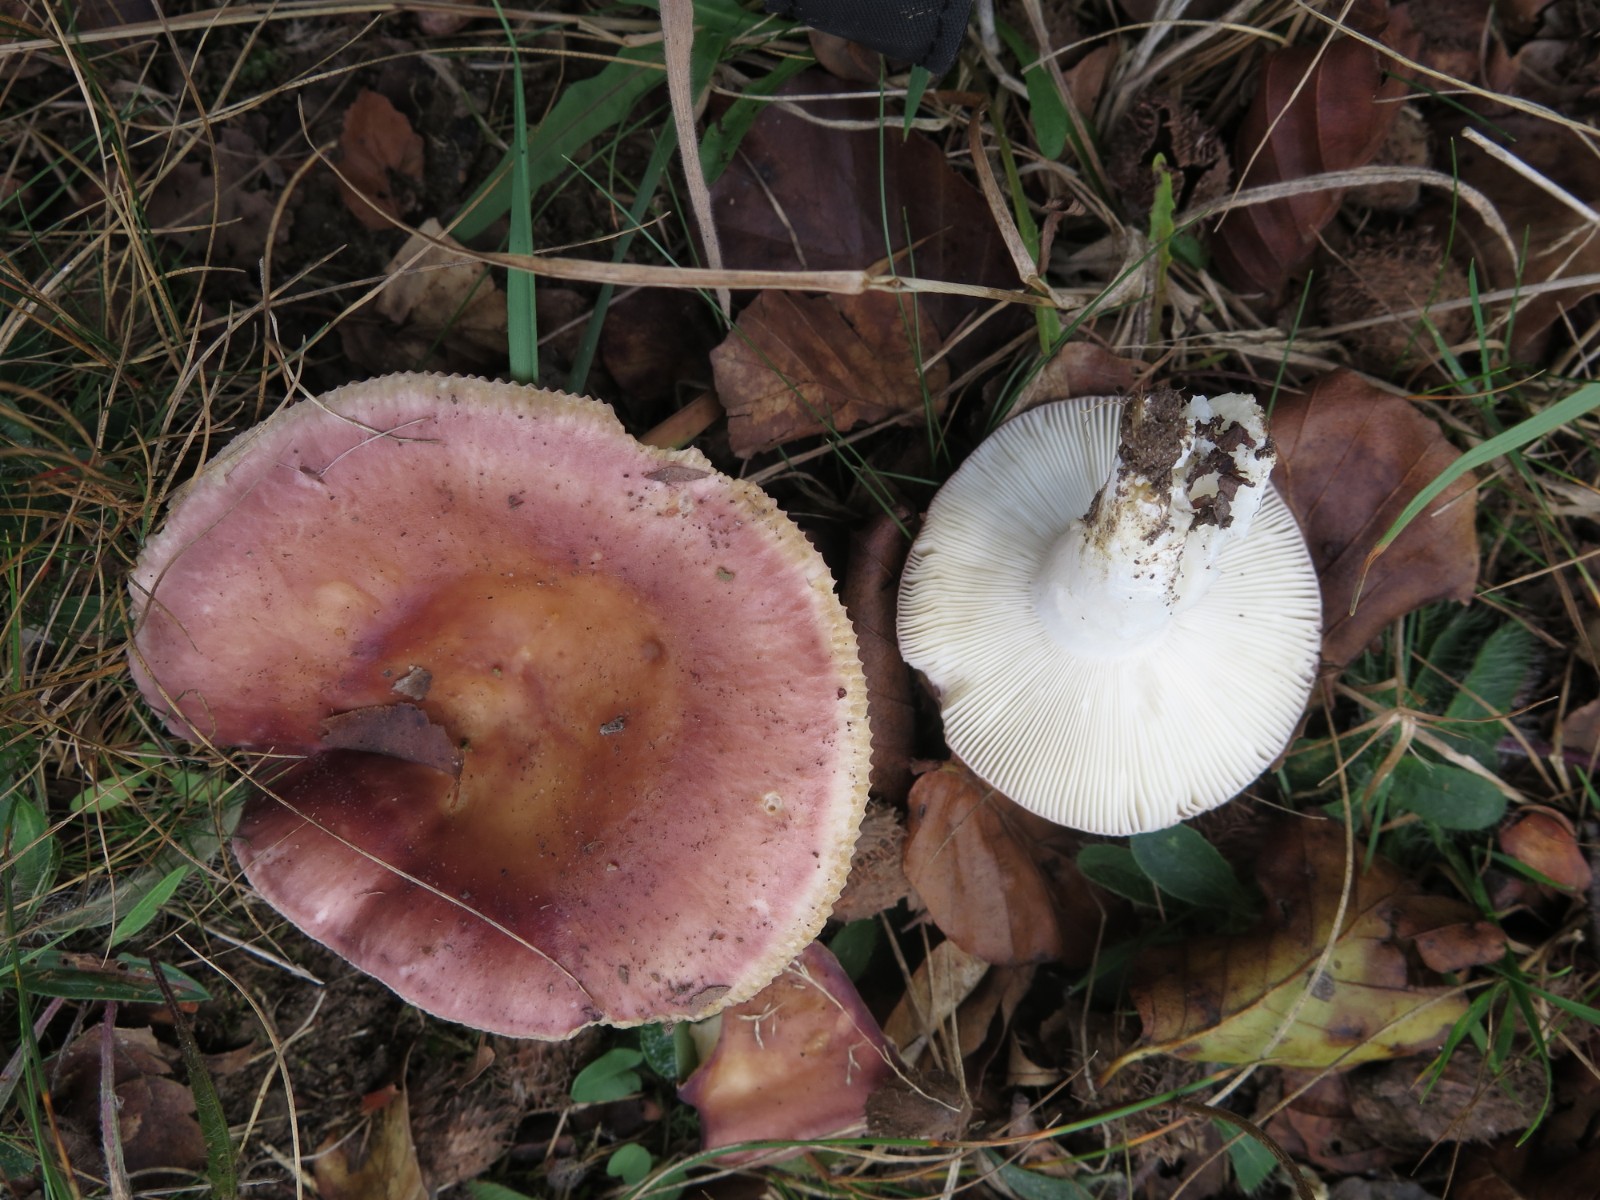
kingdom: Fungi
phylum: Basidiomycota
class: Agaricomycetes
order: Russulales
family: Russulaceae
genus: Russula
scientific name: Russula vesca
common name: spiselig skørhat
